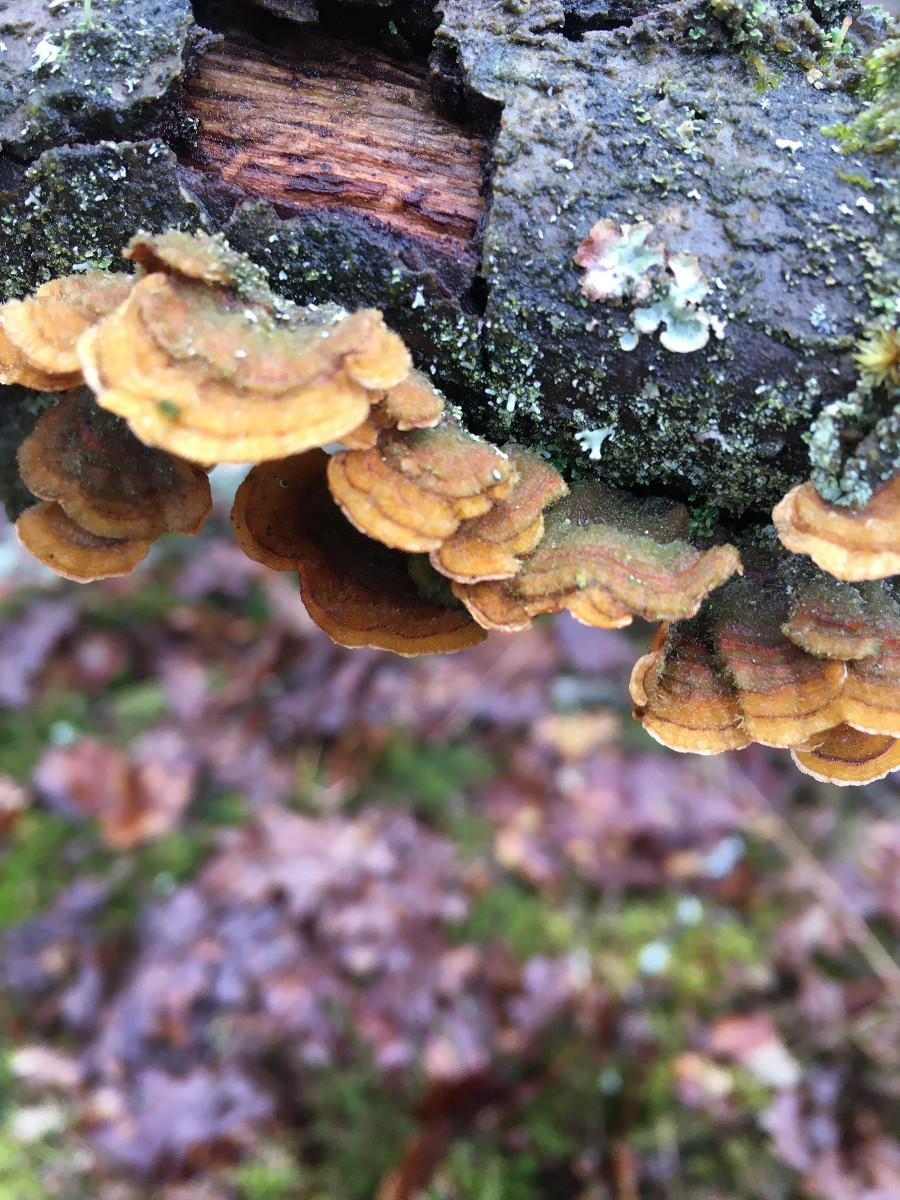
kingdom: Fungi
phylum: Basidiomycota
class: Agaricomycetes
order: Russulales
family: Stereaceae
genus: Stereum
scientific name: Stereum hirsutum
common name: håret lædersvamp
